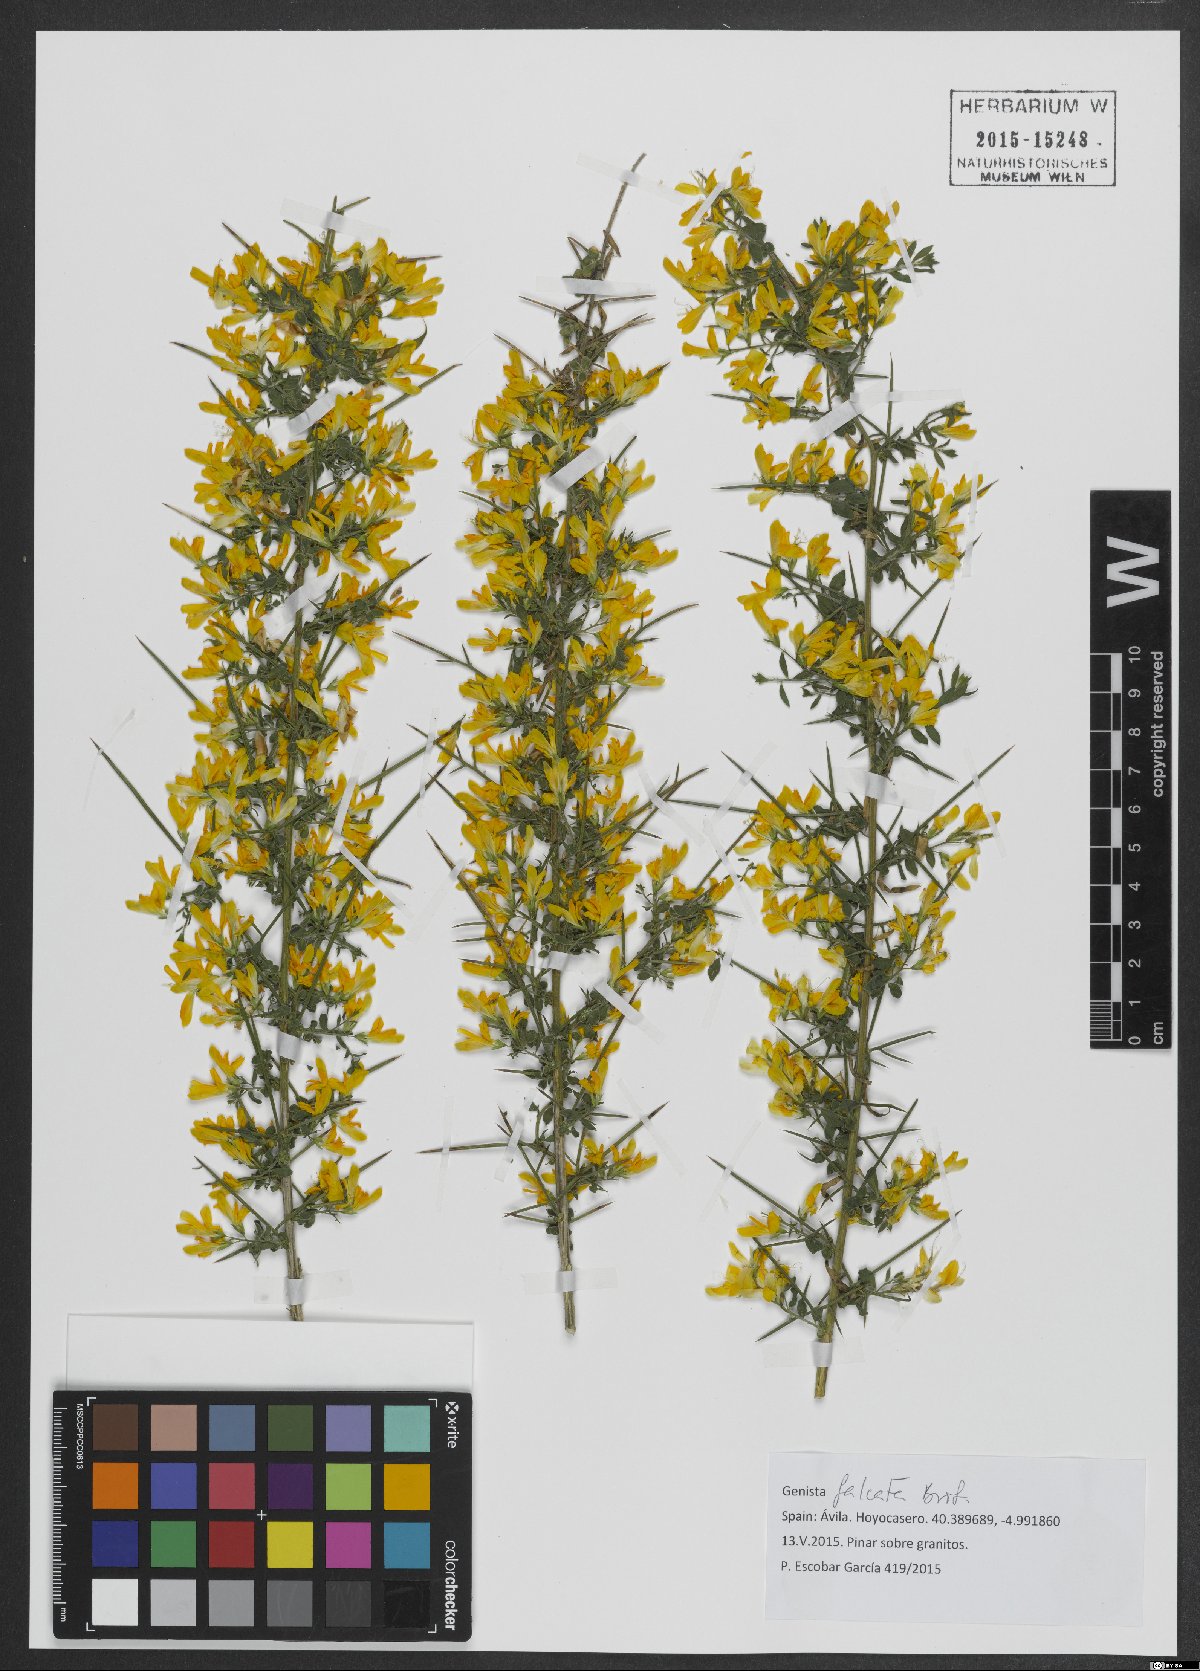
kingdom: Plantae
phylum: Tracheophyta
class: Magnoliopsida
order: Fabales
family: Fabaceae
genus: Genista
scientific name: Genista falcata
